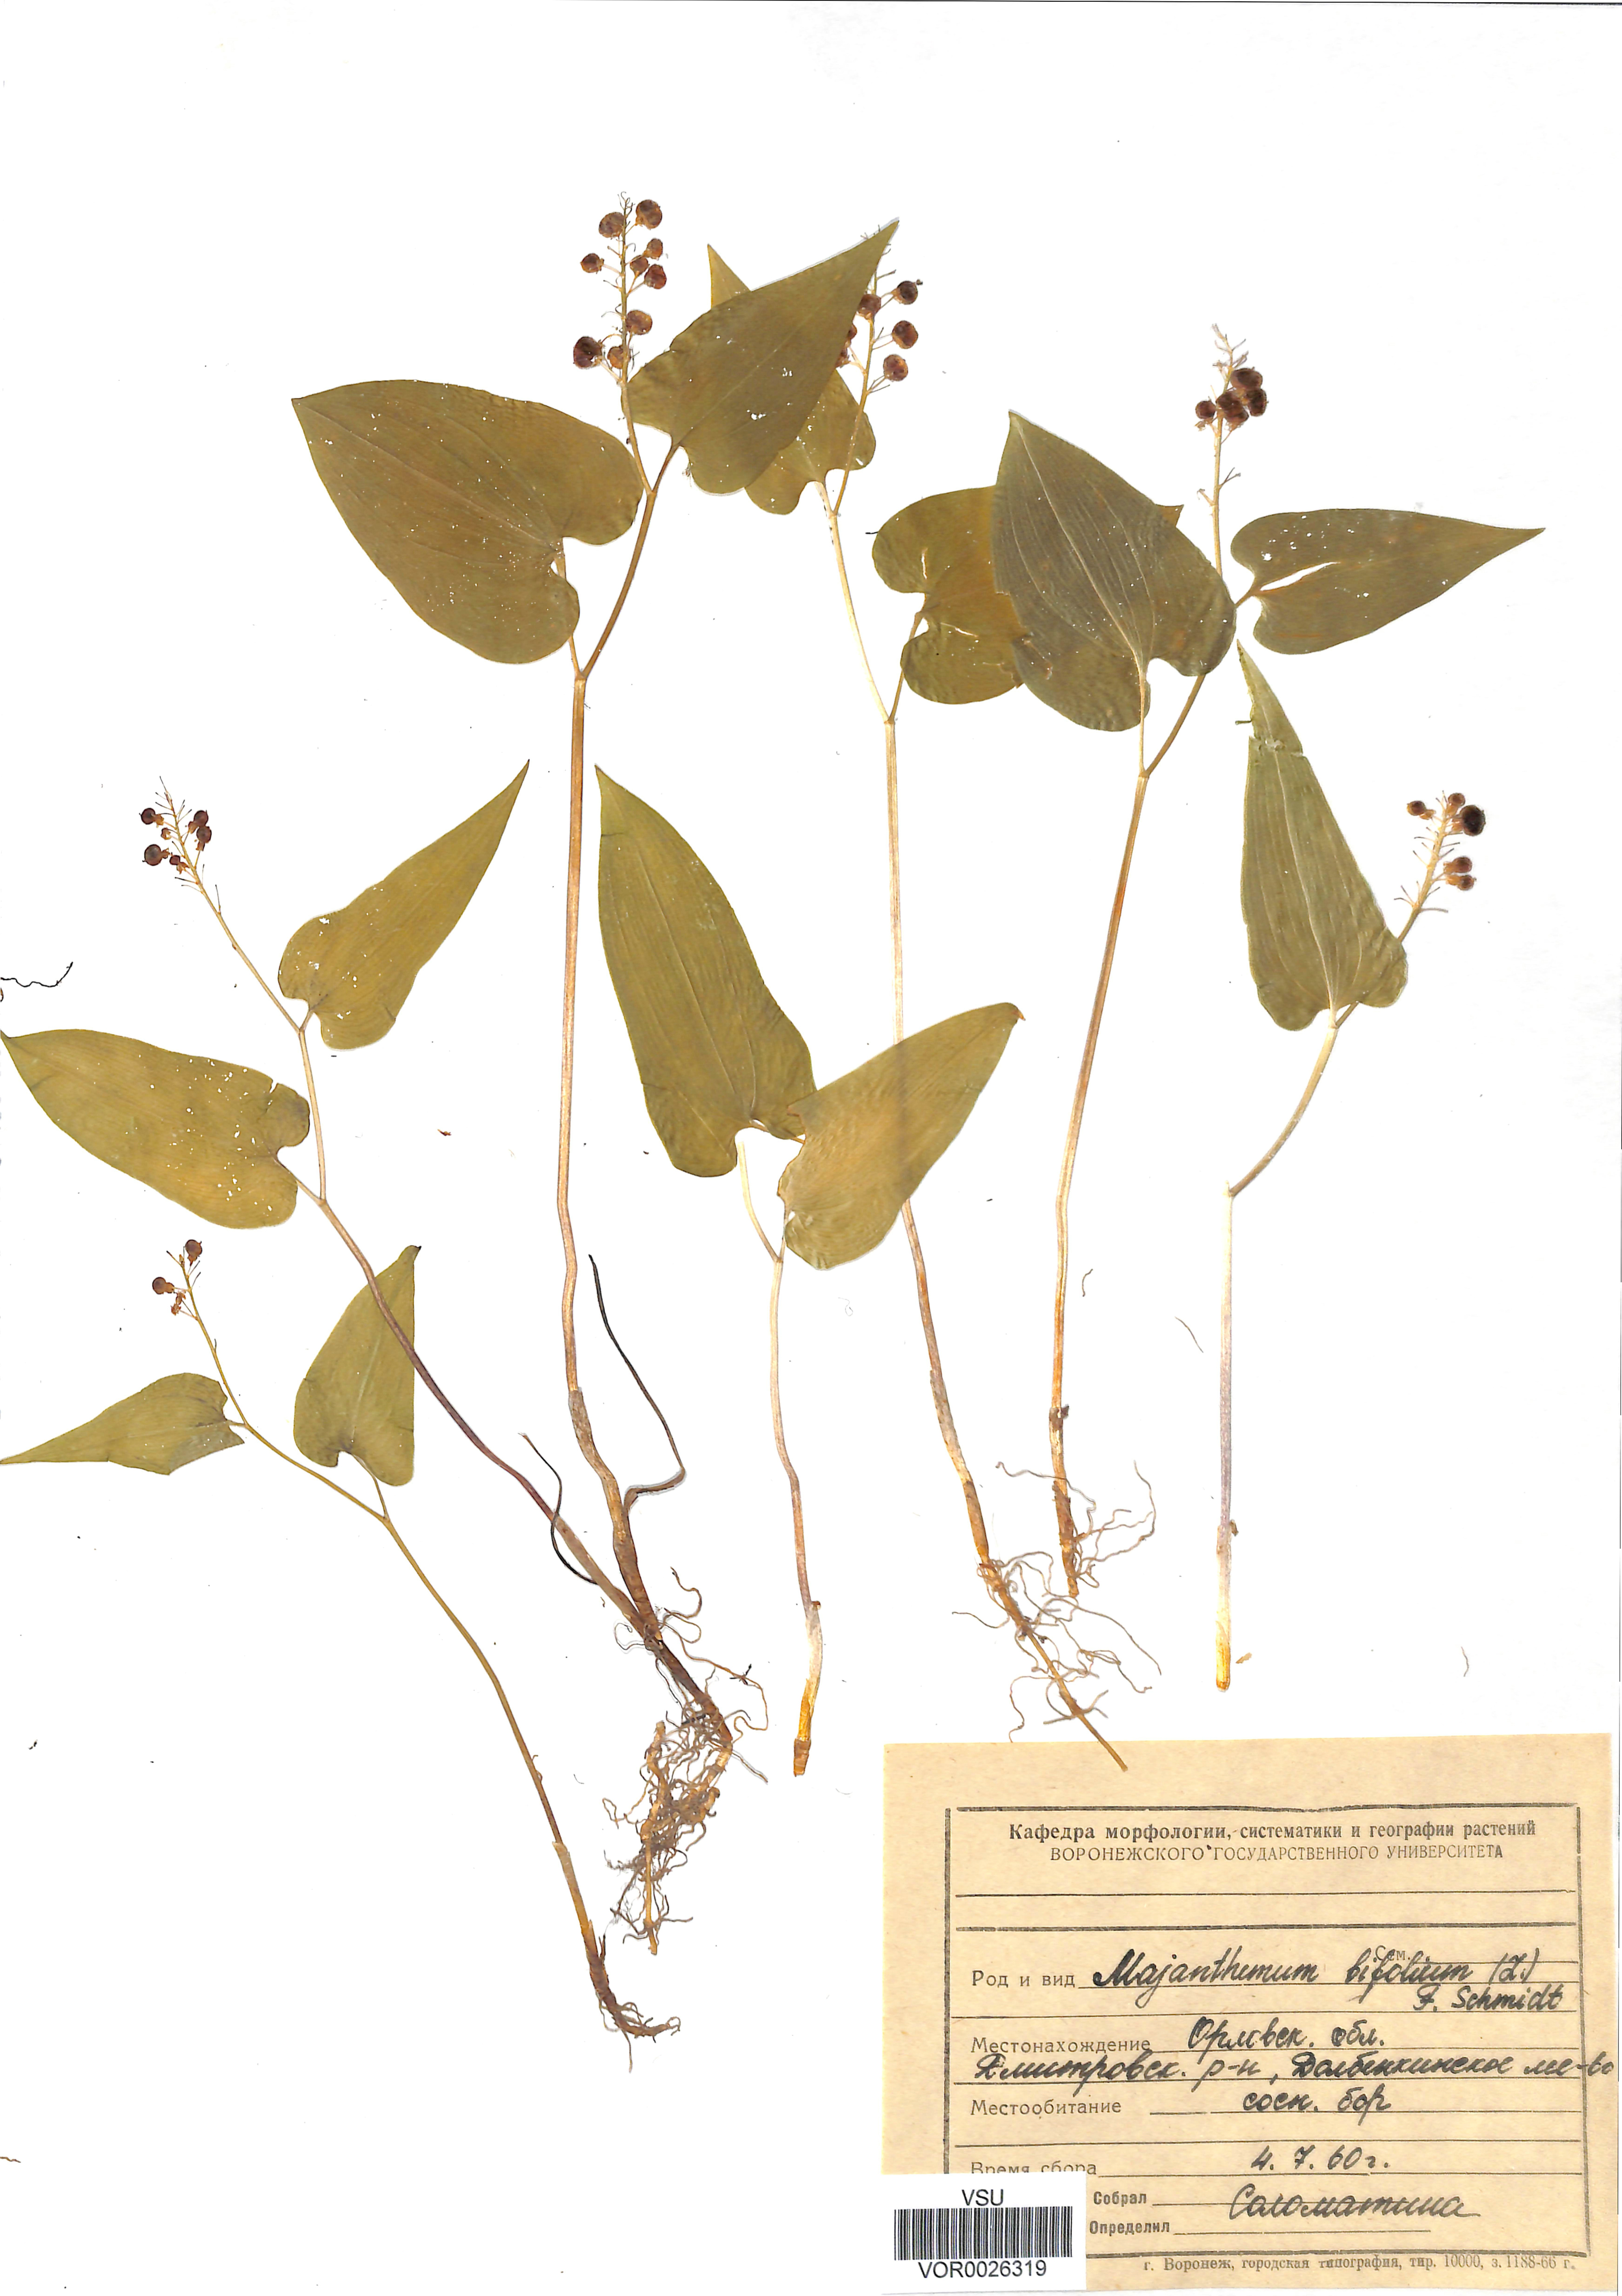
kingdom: Plantae
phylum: Tracheophyta
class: Liliopsida
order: Asparagales
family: Asparagaceae
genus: Maianthemum
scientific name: Maianthemum bifolium
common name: May lily
